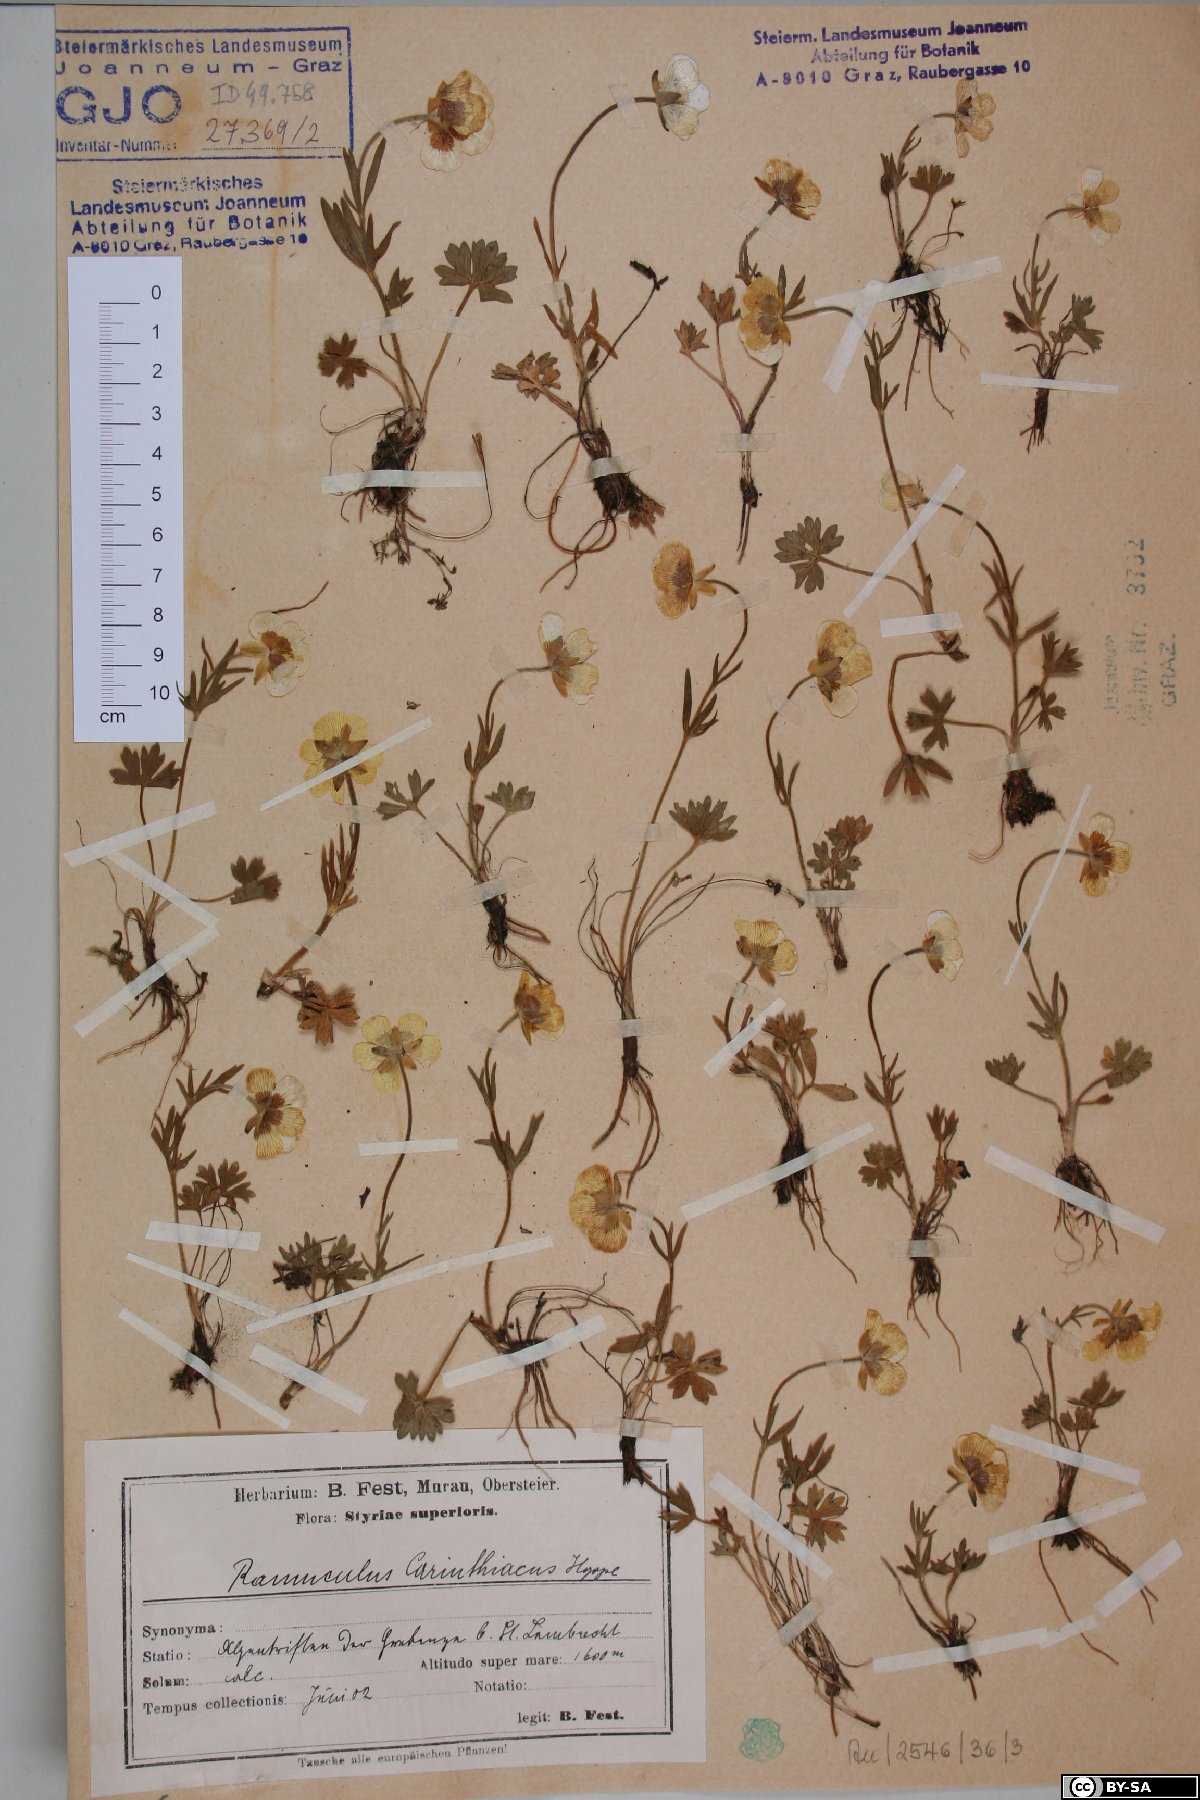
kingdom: Plantae
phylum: Tracheophyta
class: Magnoliopsida
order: Ranunculales
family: Ranunculaceae
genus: Ranunculus
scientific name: Ranunculus carinthiacus
